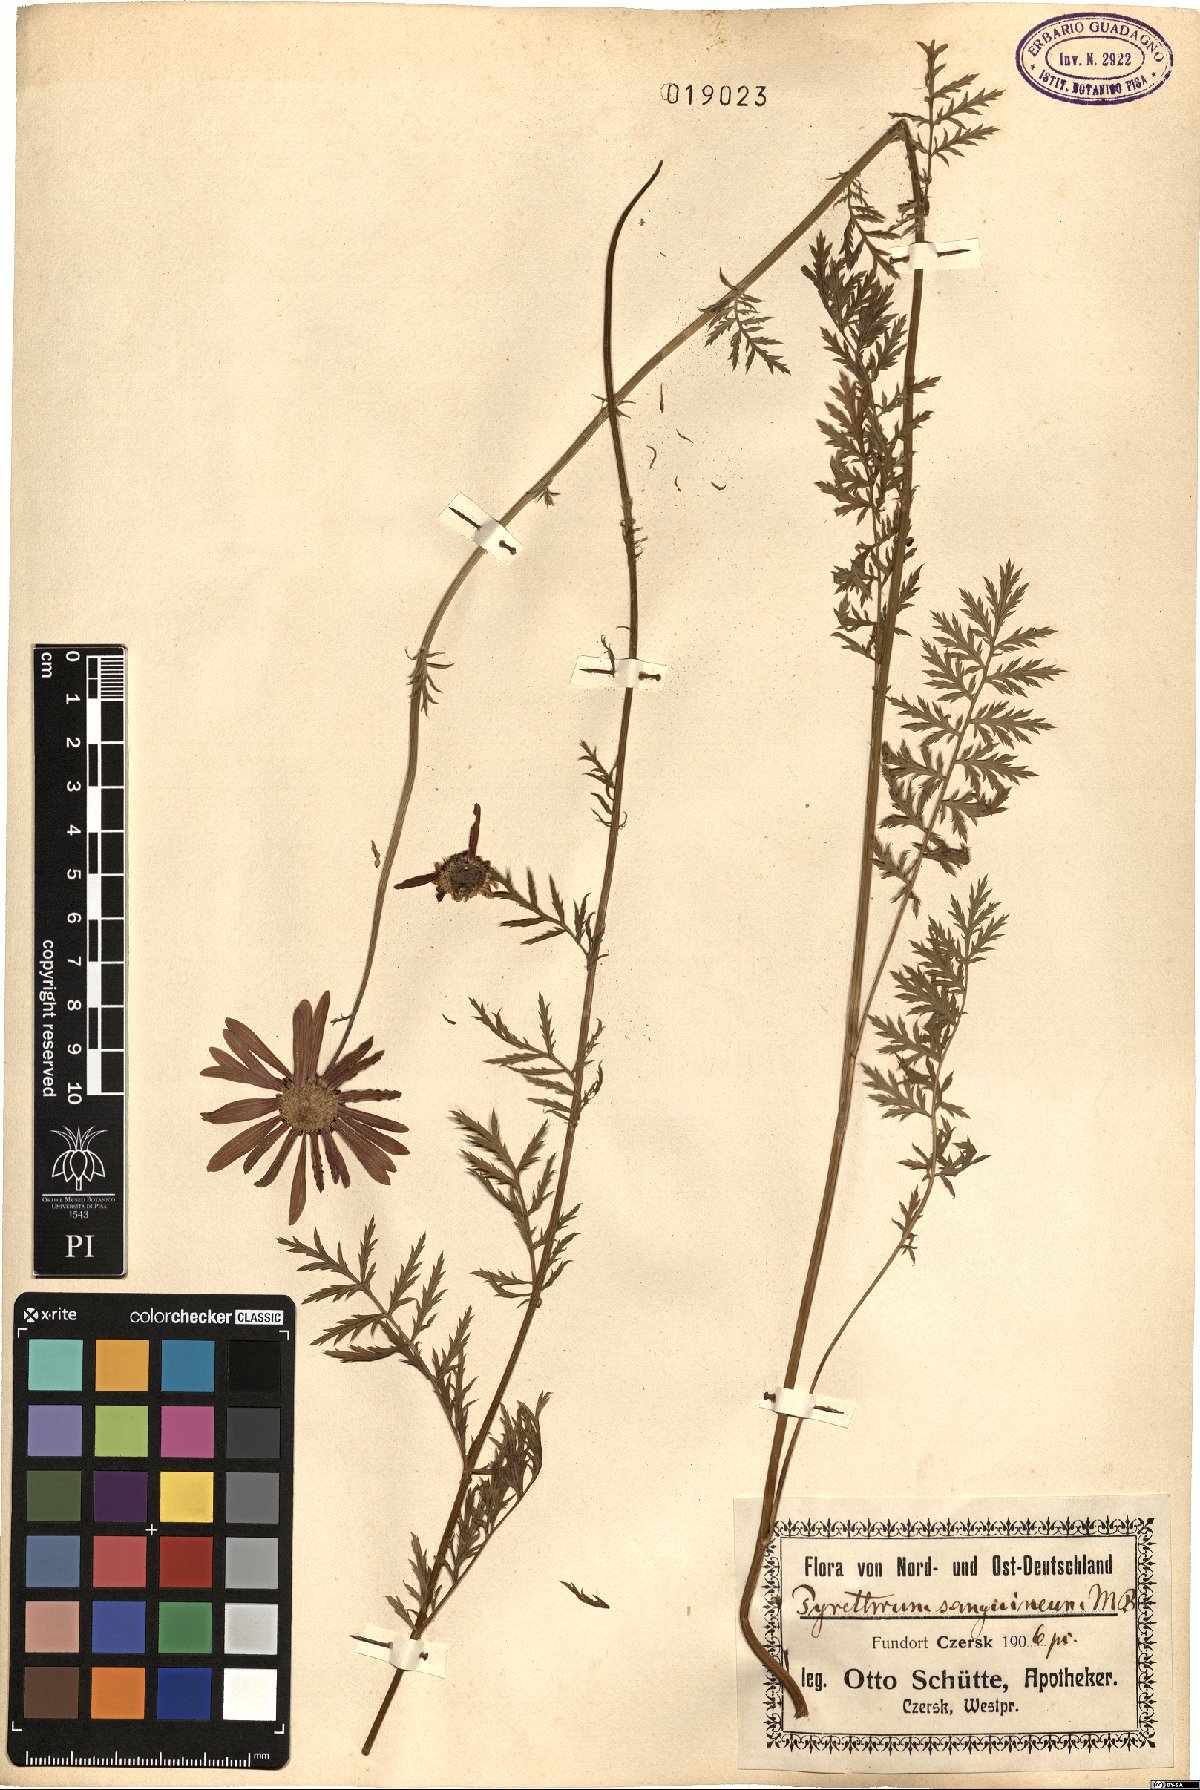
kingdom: Plantae
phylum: Tracheophyta
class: Magnoliopsida
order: Asterales
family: Asteraceae
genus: Pyrethrum
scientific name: Pyrethrum
